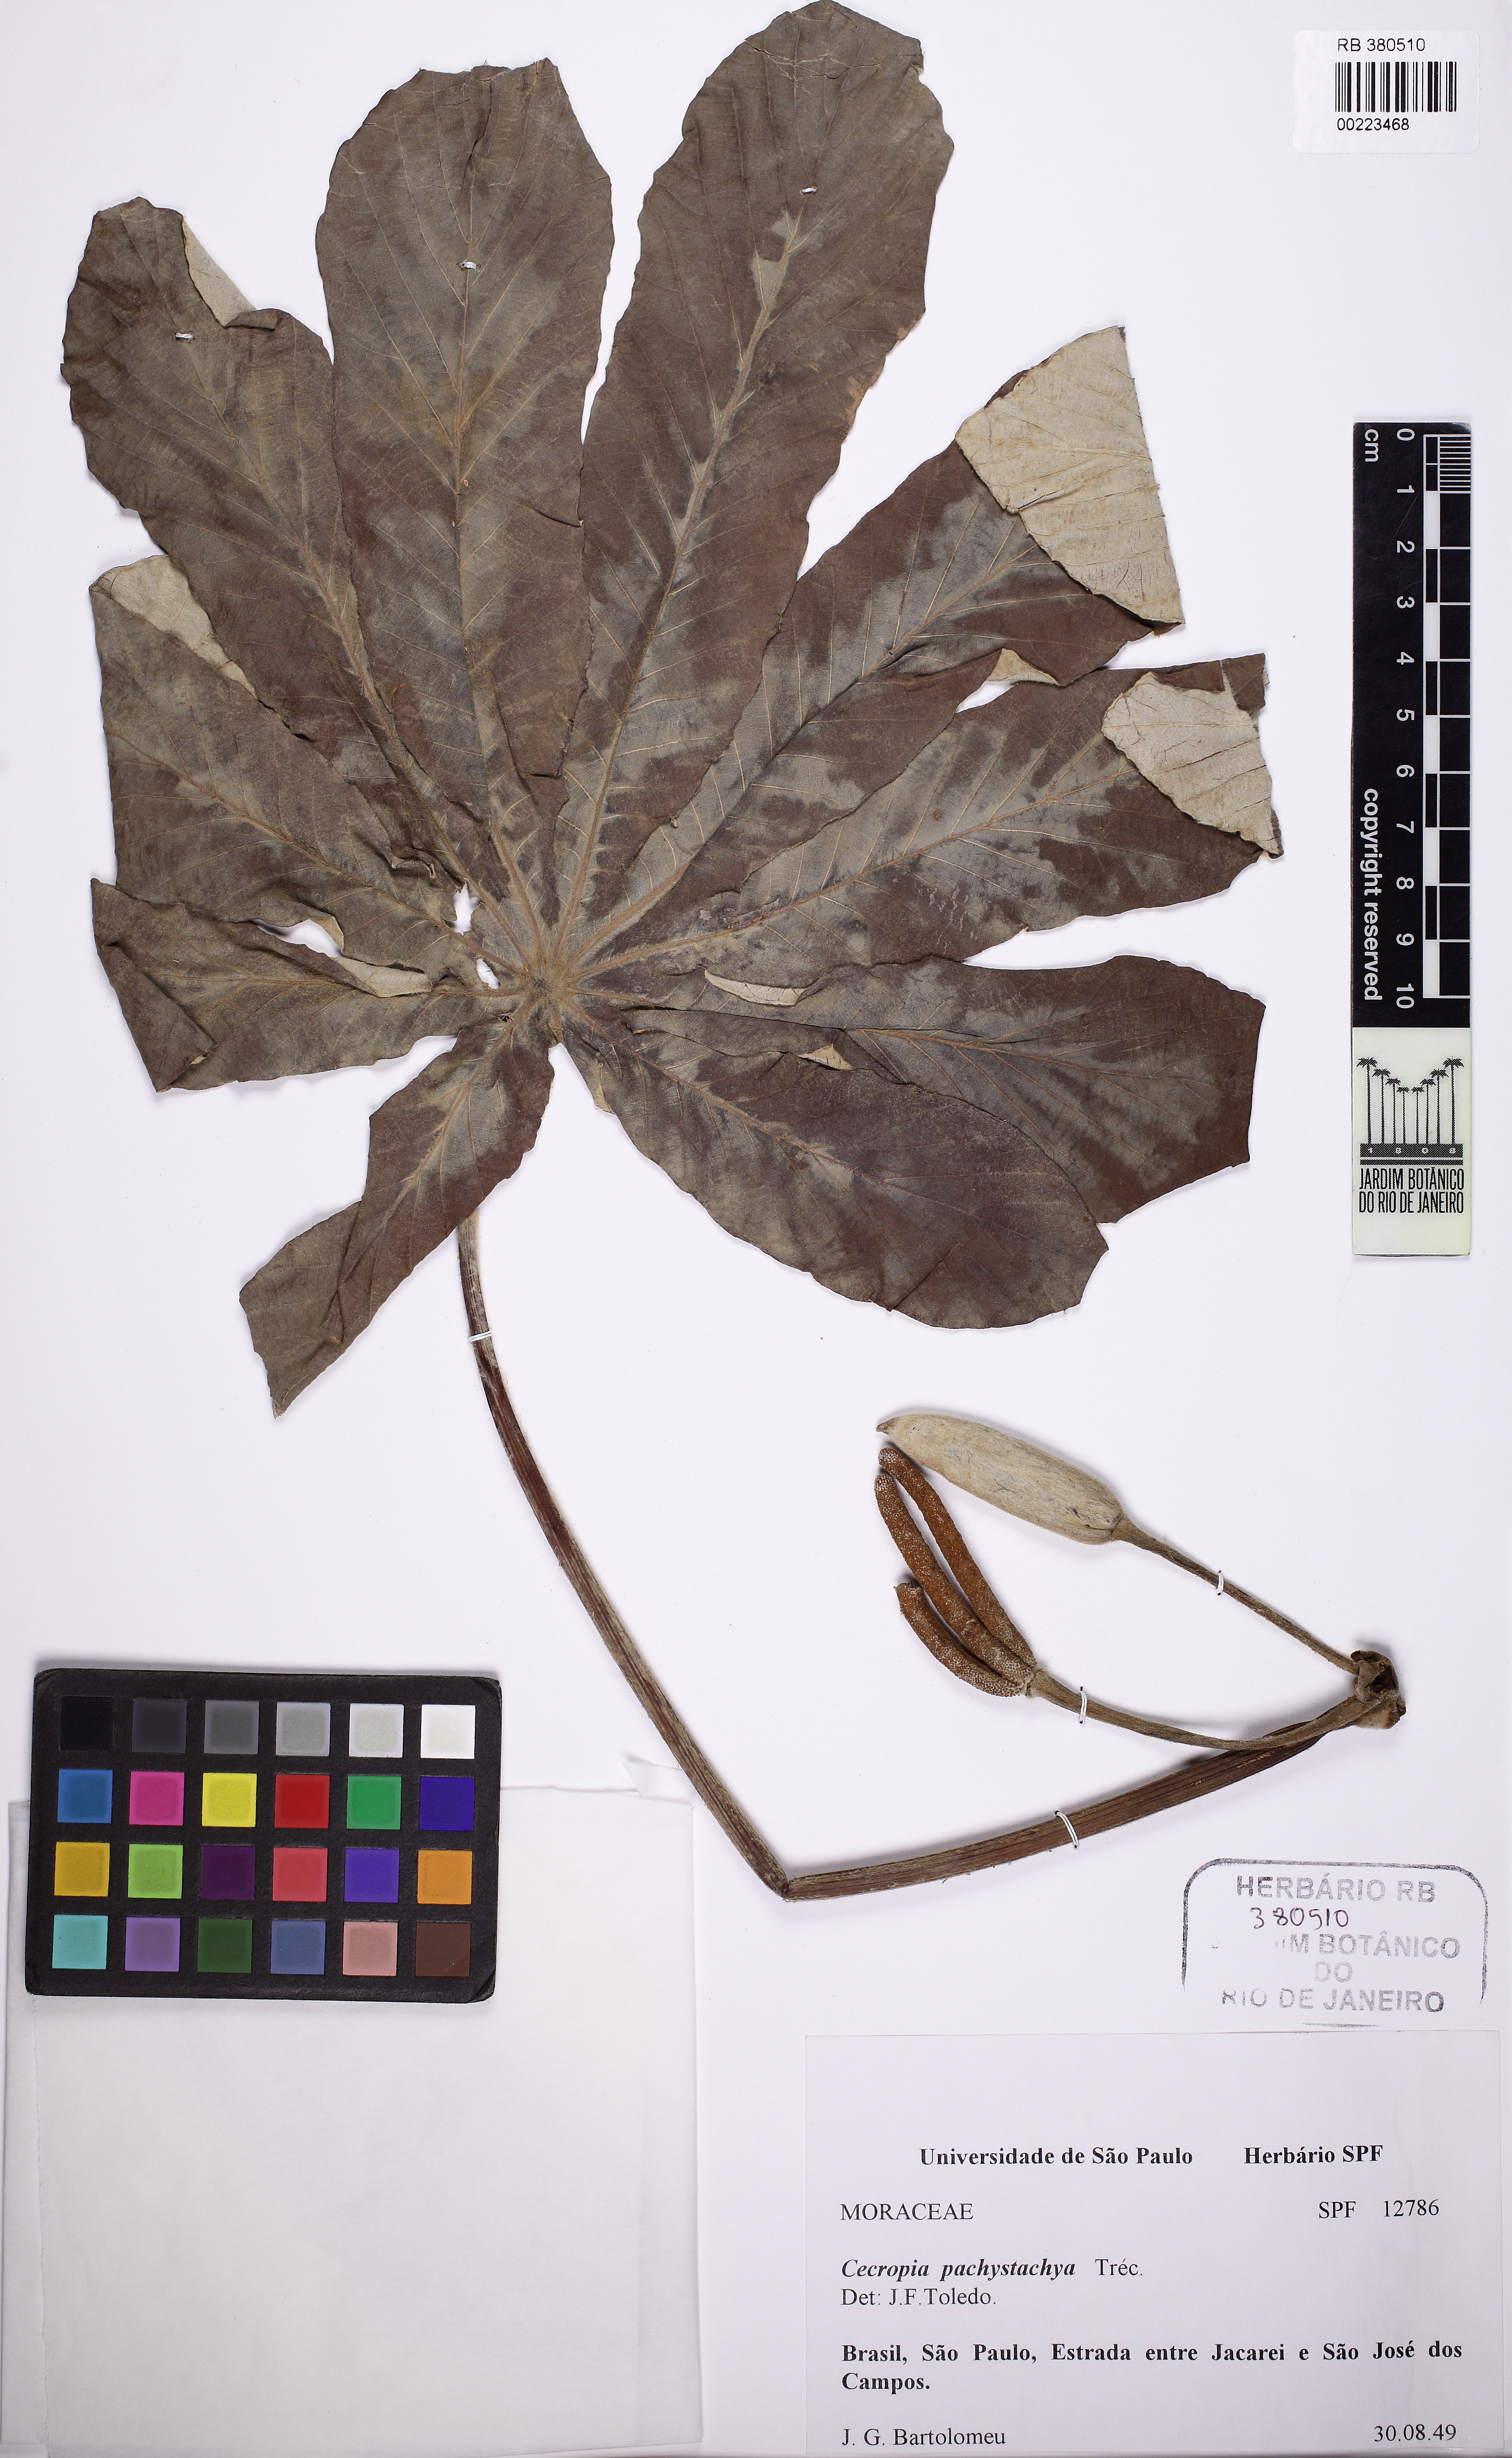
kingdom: Plantae
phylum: Tracheophyta
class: Magnoliopsida
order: Rosales
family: Urticaceae
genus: Cecropia
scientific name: Cecropia pachystachya
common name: Ambay pumpwood
